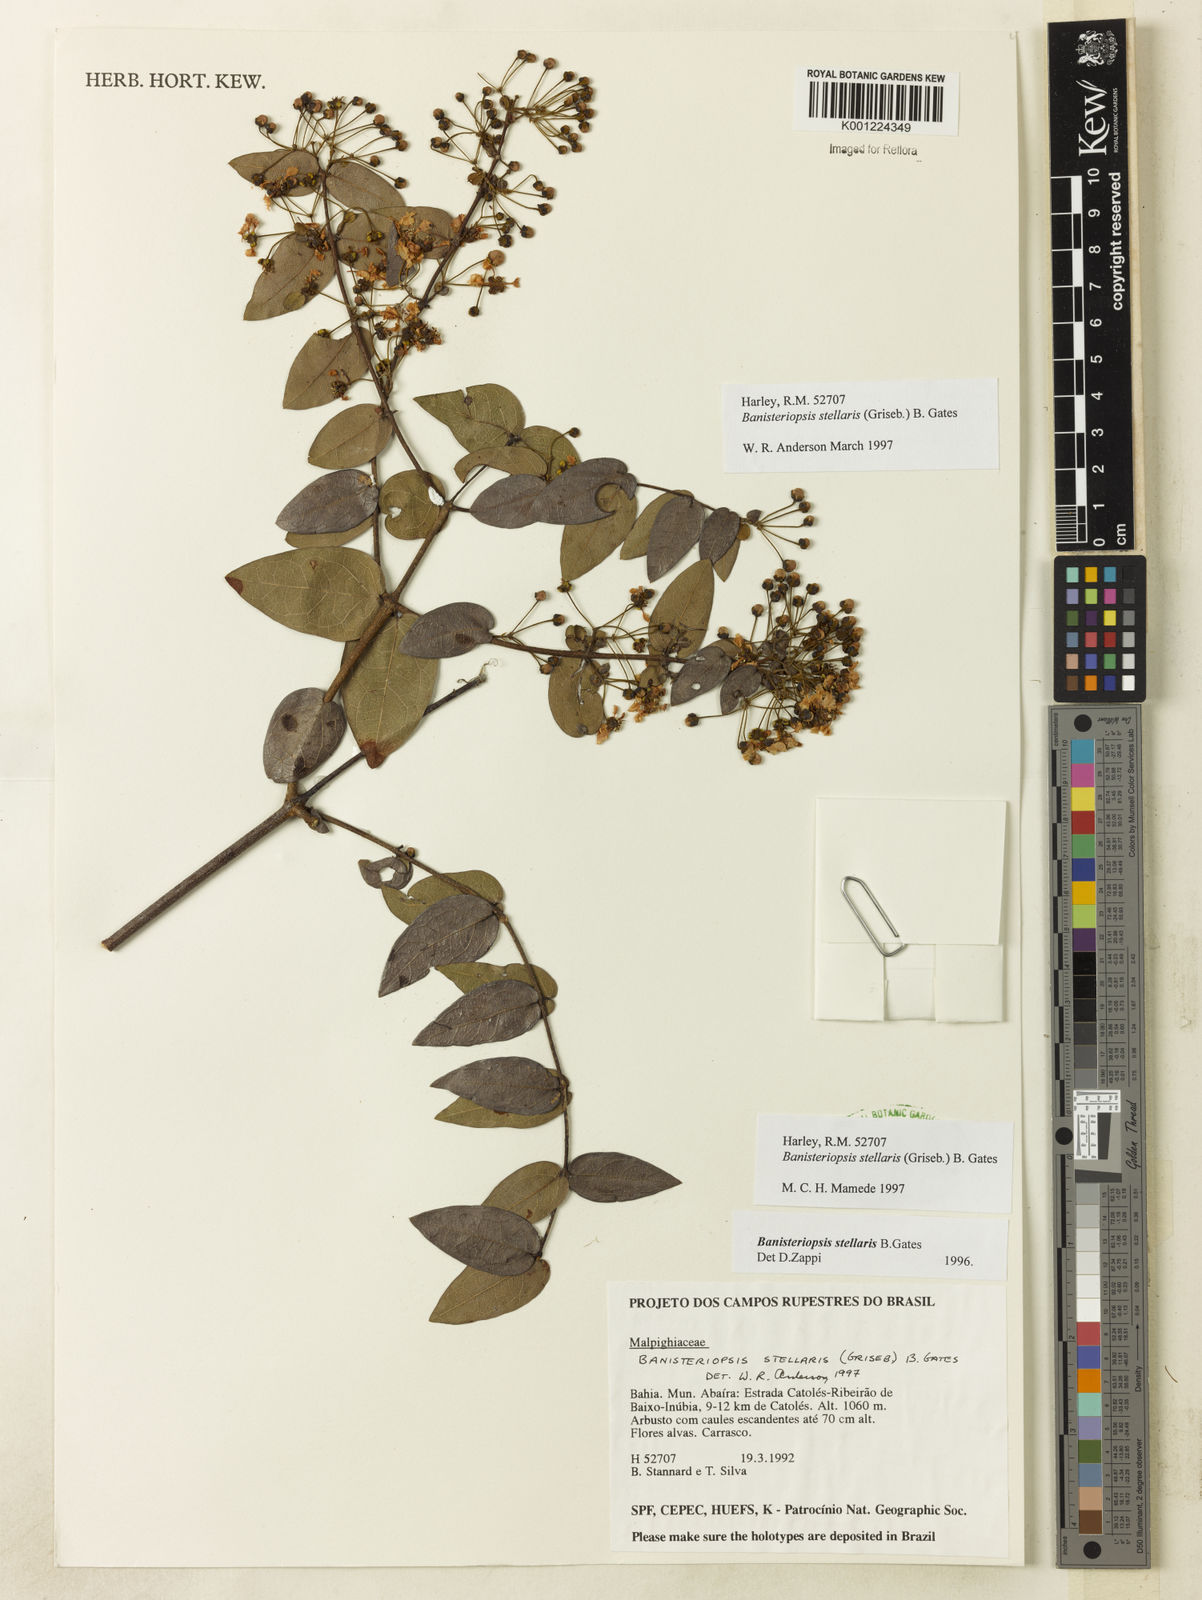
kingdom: Plantae
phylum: Tracheophyta
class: Magnoliopsida
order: Malpighiales
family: Malpighiaceae
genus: Banisteriopsis
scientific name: Banisteriopsis stellaris
